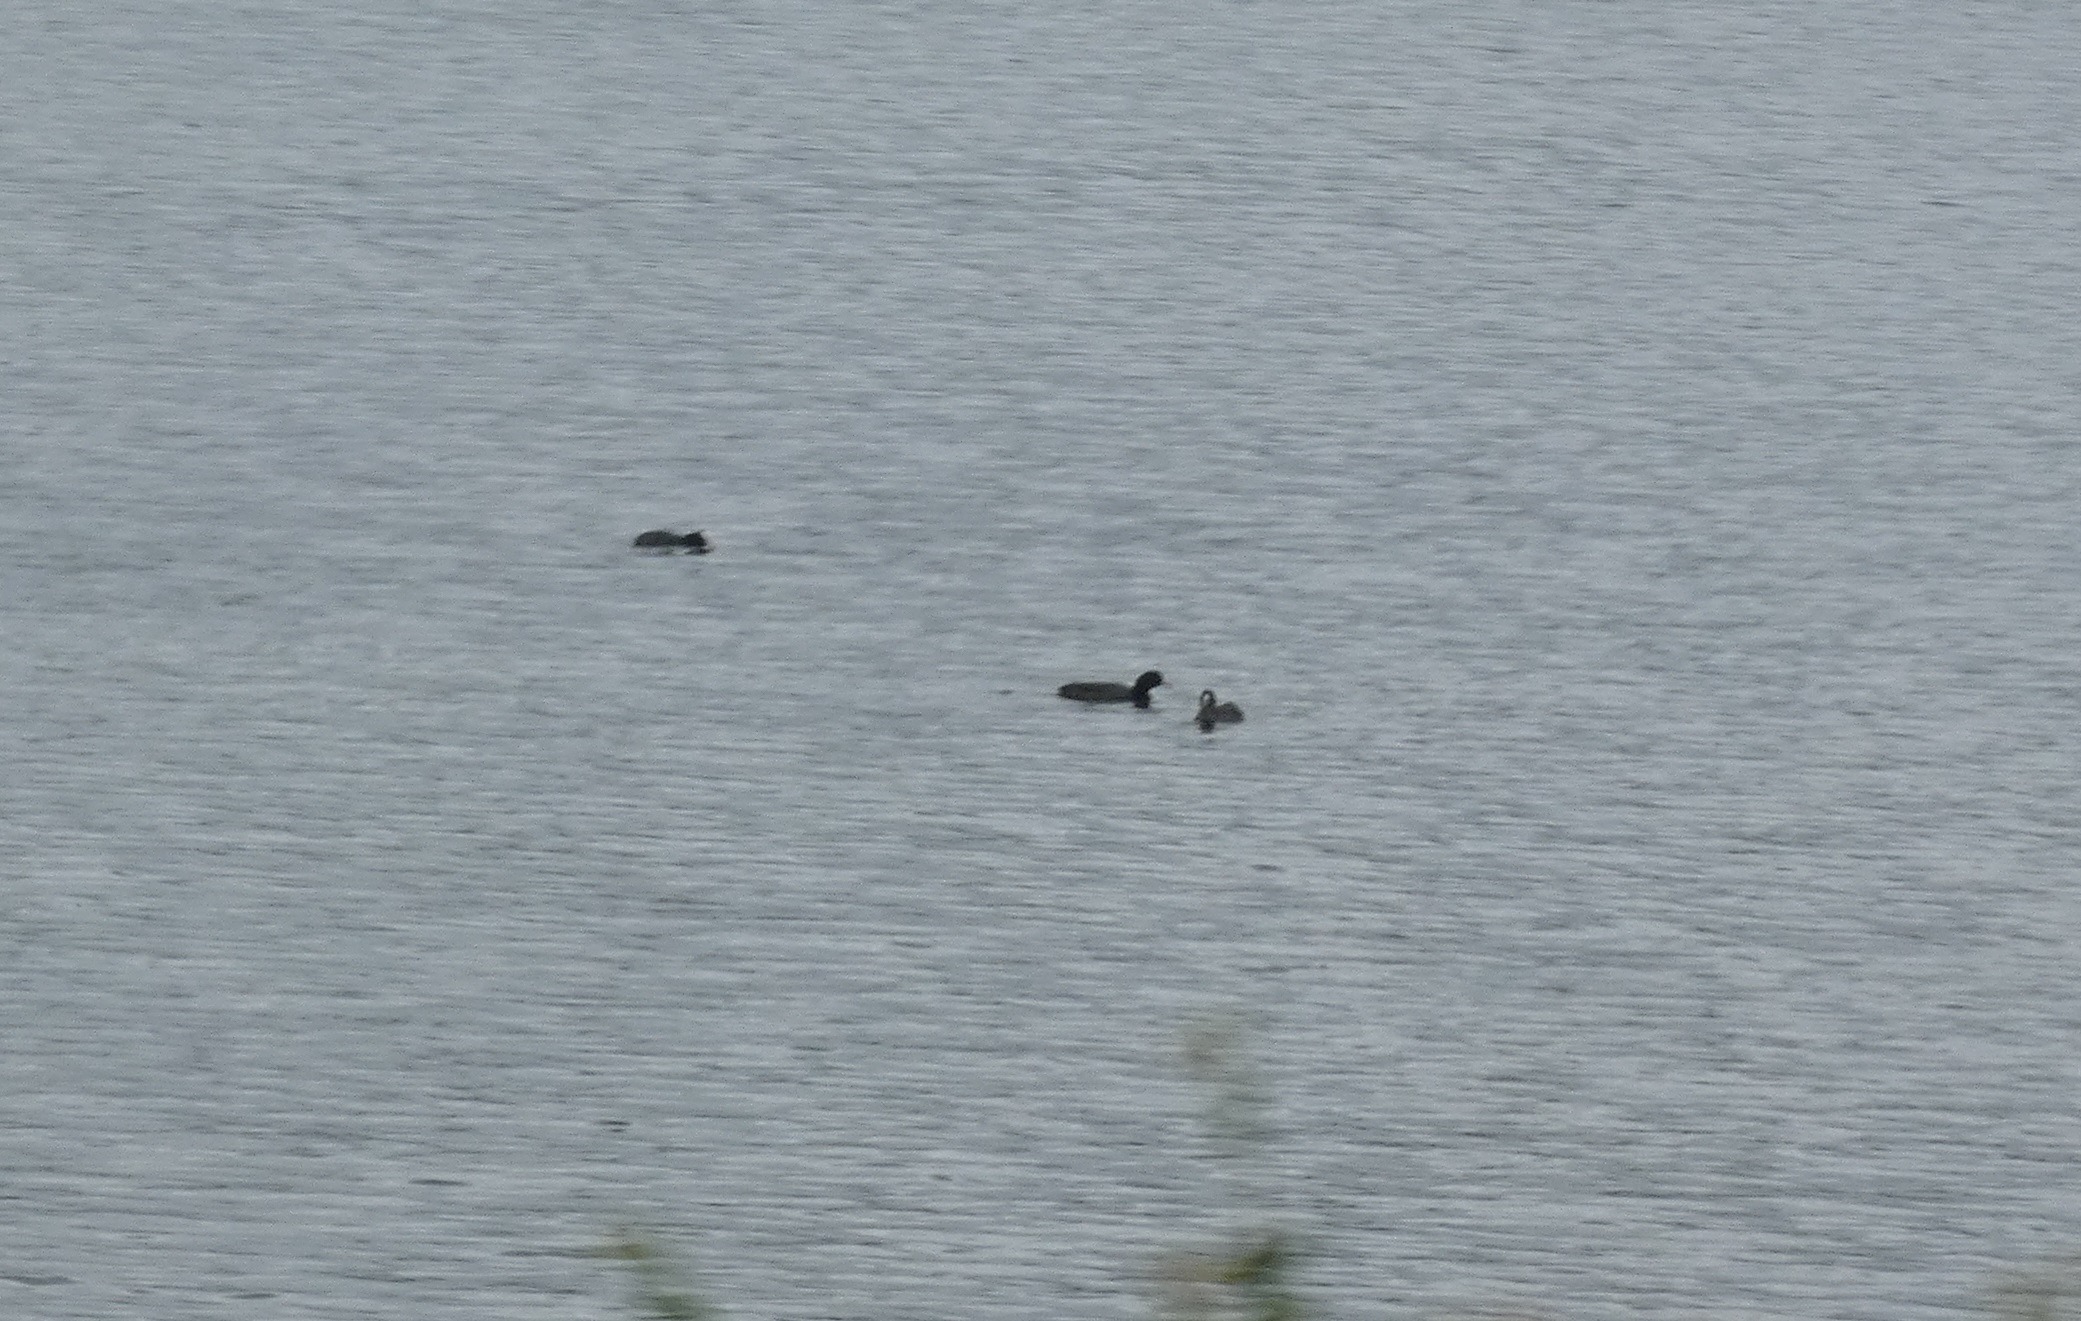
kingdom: Animalia
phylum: Chordata
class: Aves
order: Gruiformes
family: Rallidae
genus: Fulica
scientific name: Fulica atra
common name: Blishøne
